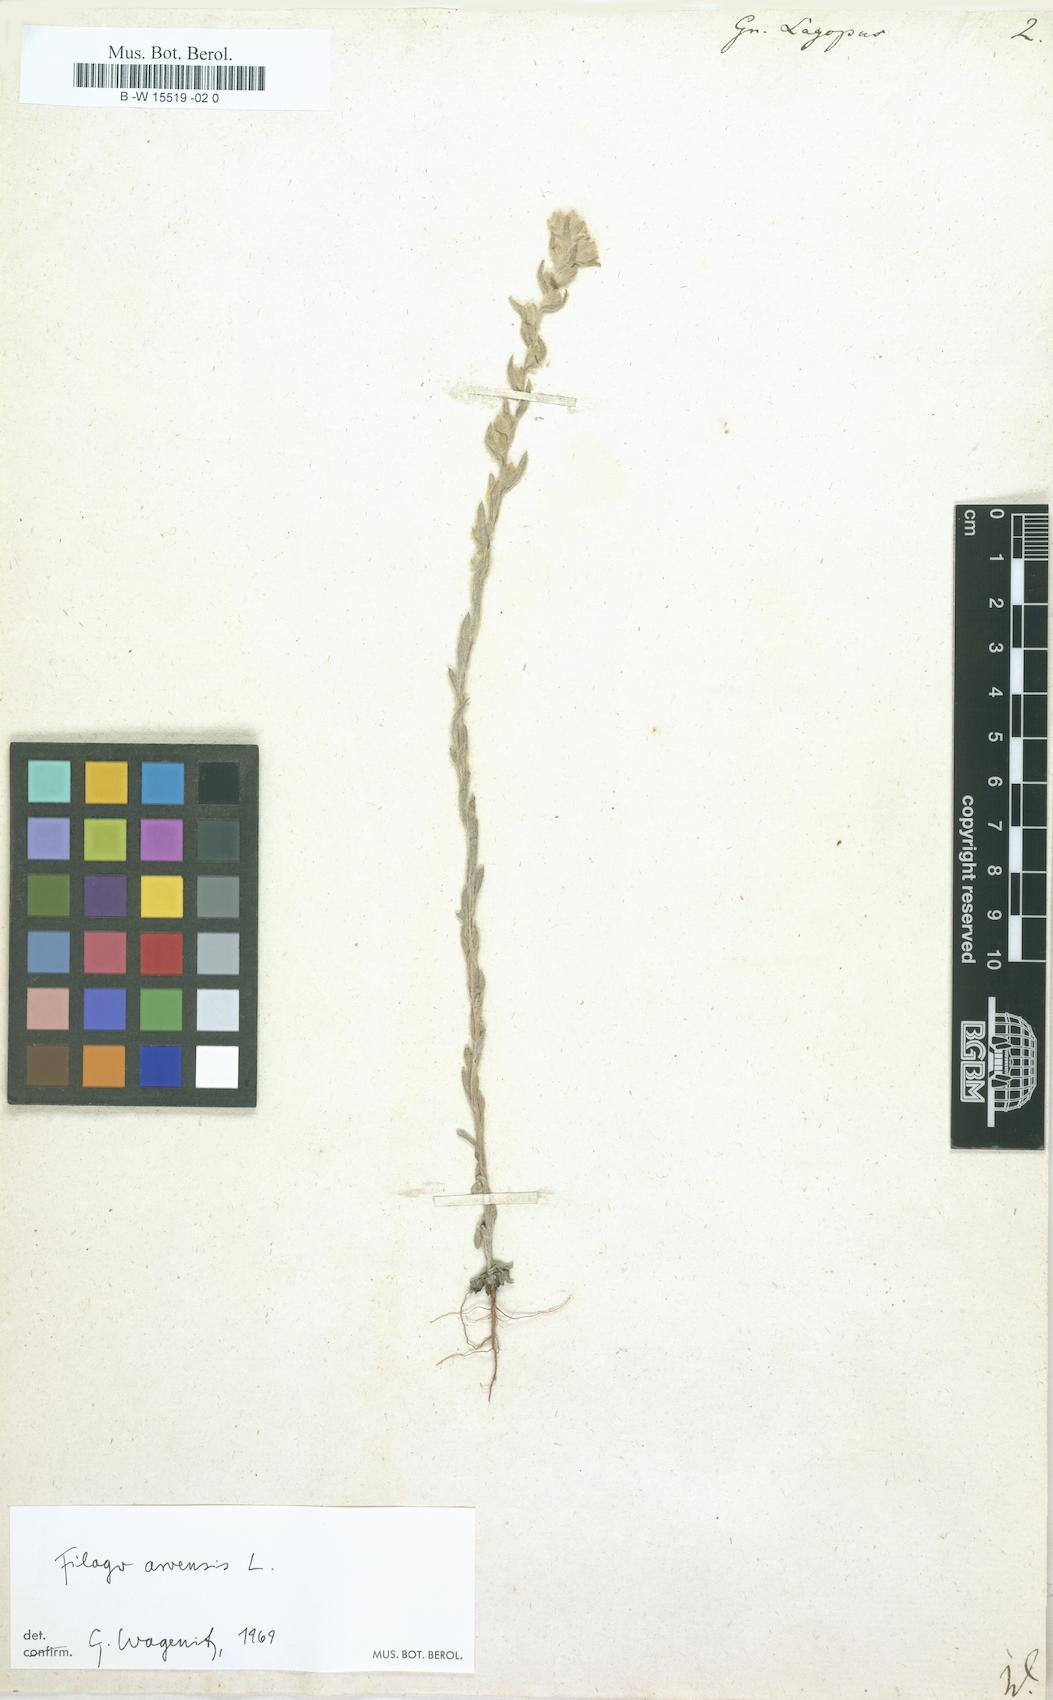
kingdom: Plantae
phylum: Tracheophyta
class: Magnoliopsida
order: Asterales
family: Asteraceae
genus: Filago
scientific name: Filago arvensis
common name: Field cudweed
